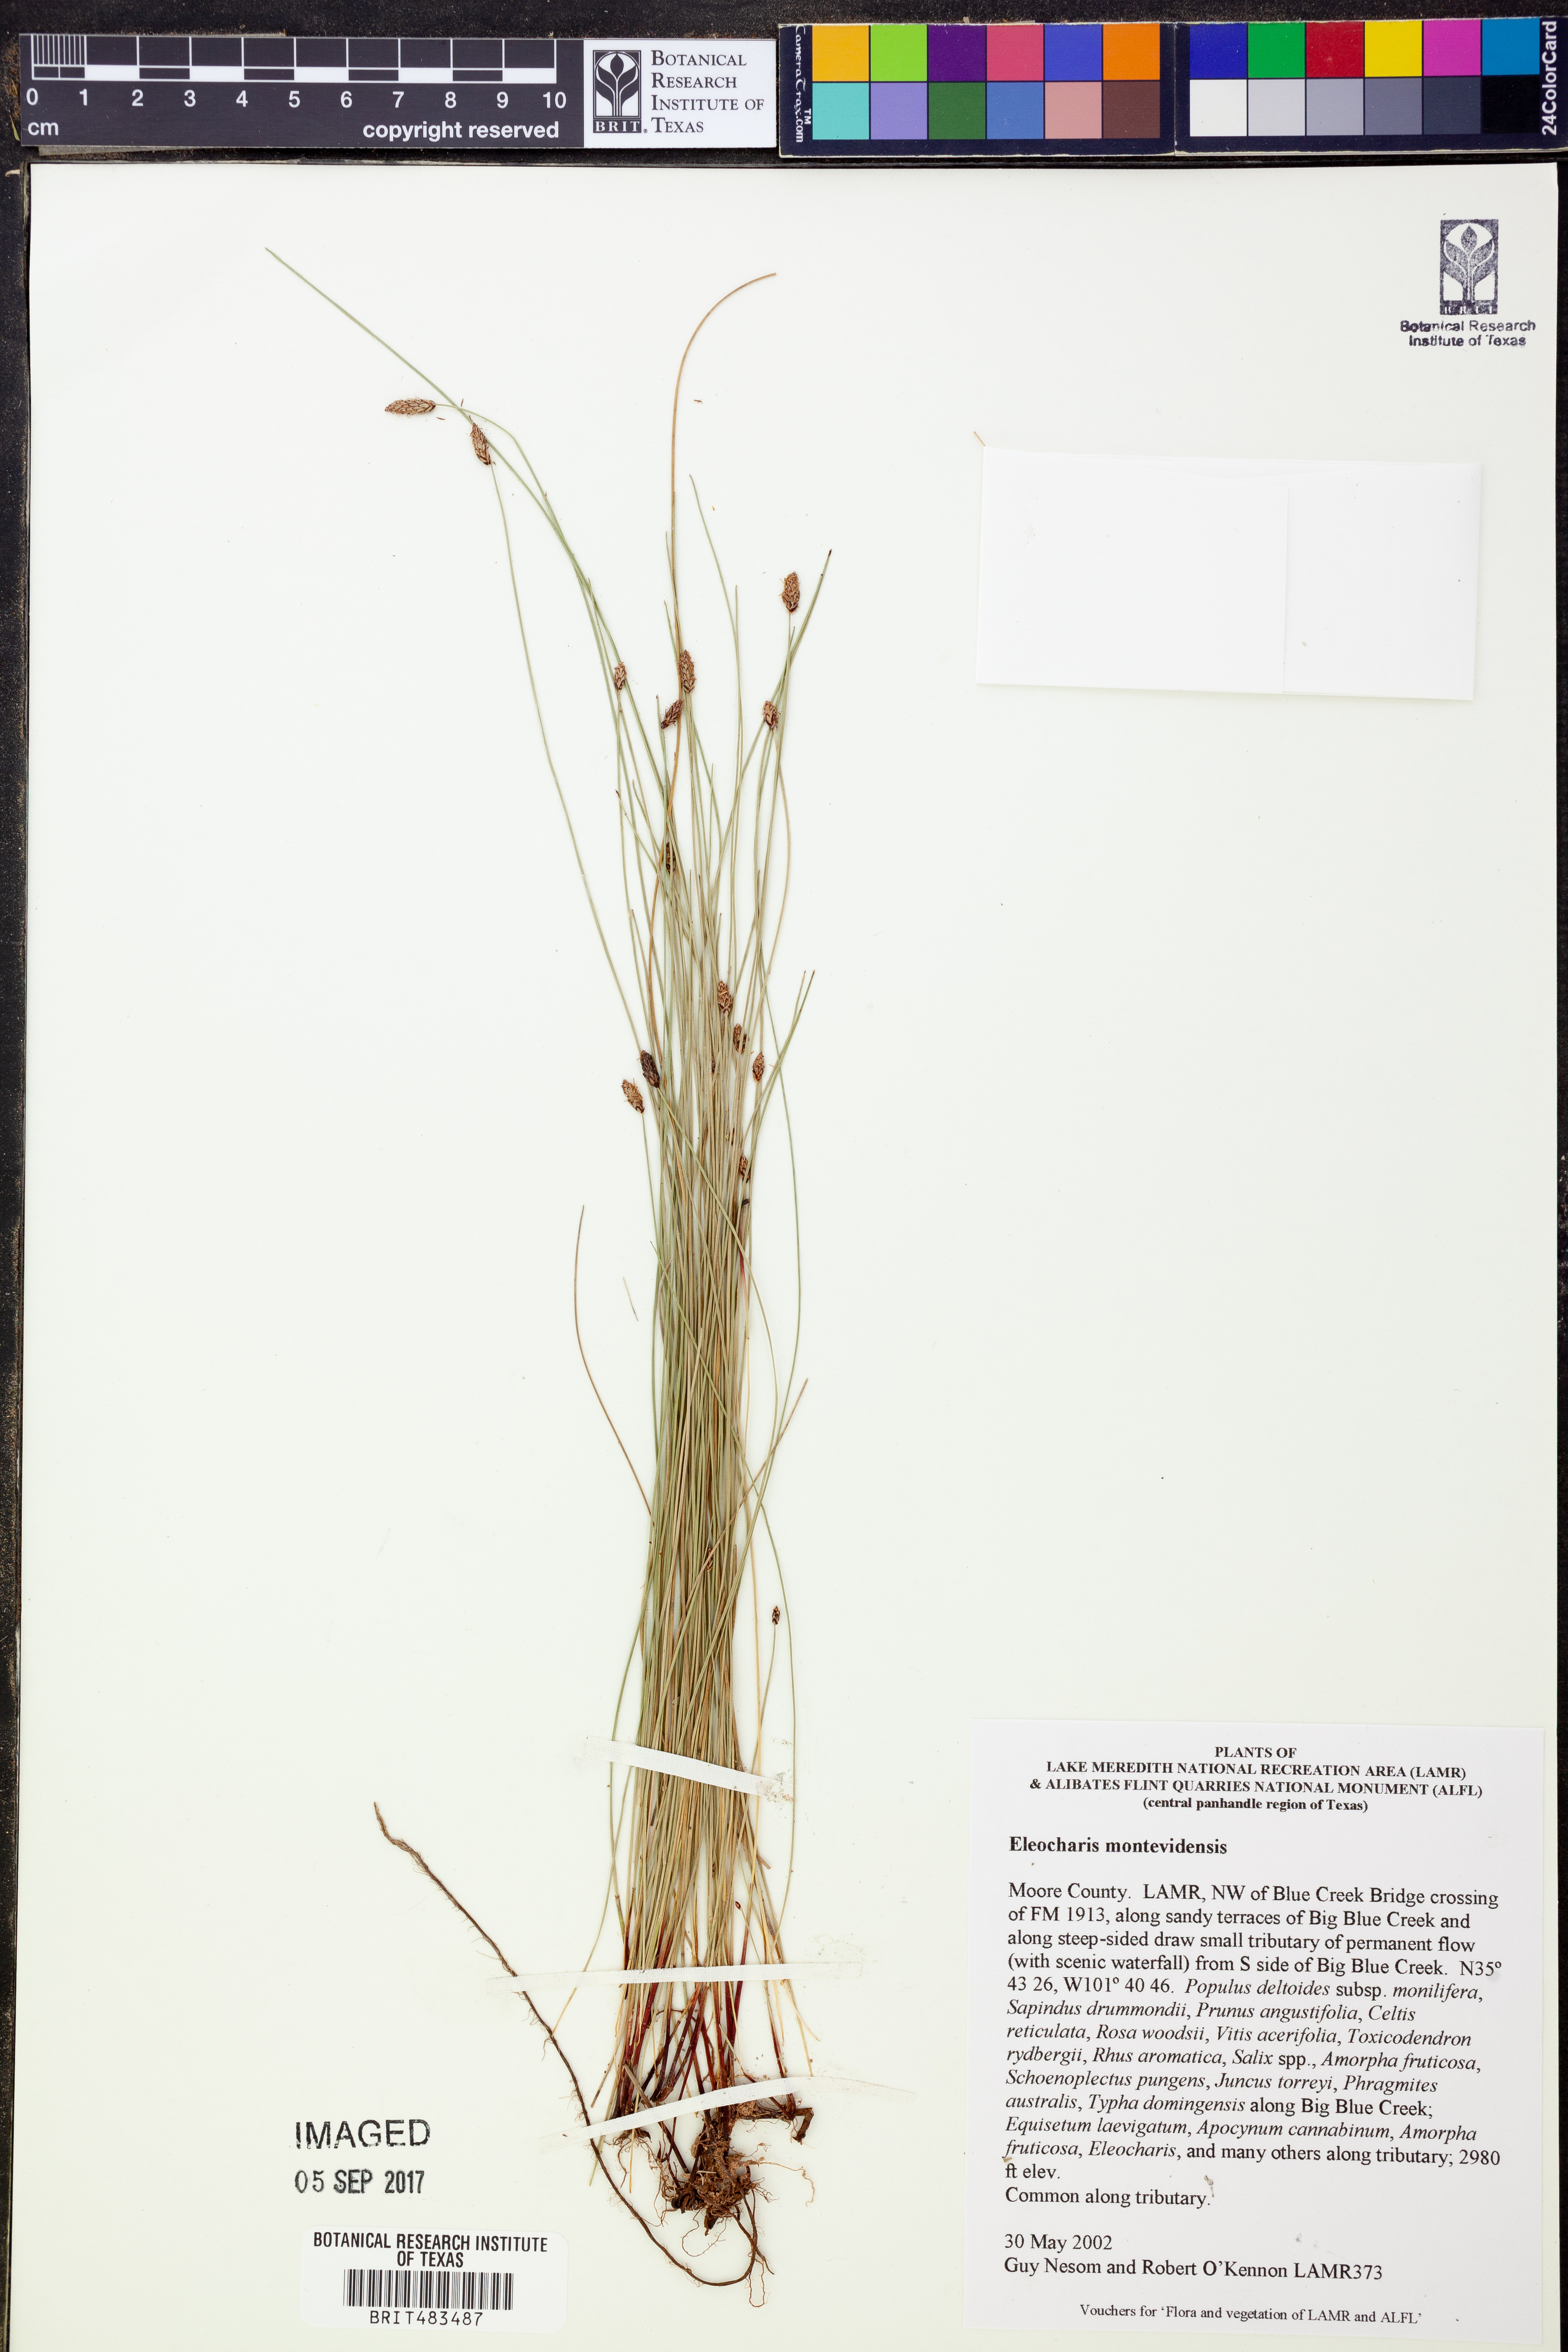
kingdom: Plantae
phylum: Tracheophyta
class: Liliopsida
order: Poales
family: Cyperaceae
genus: Eleocharis
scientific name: Eleocharis montevidensis
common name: Sand spike-rush
